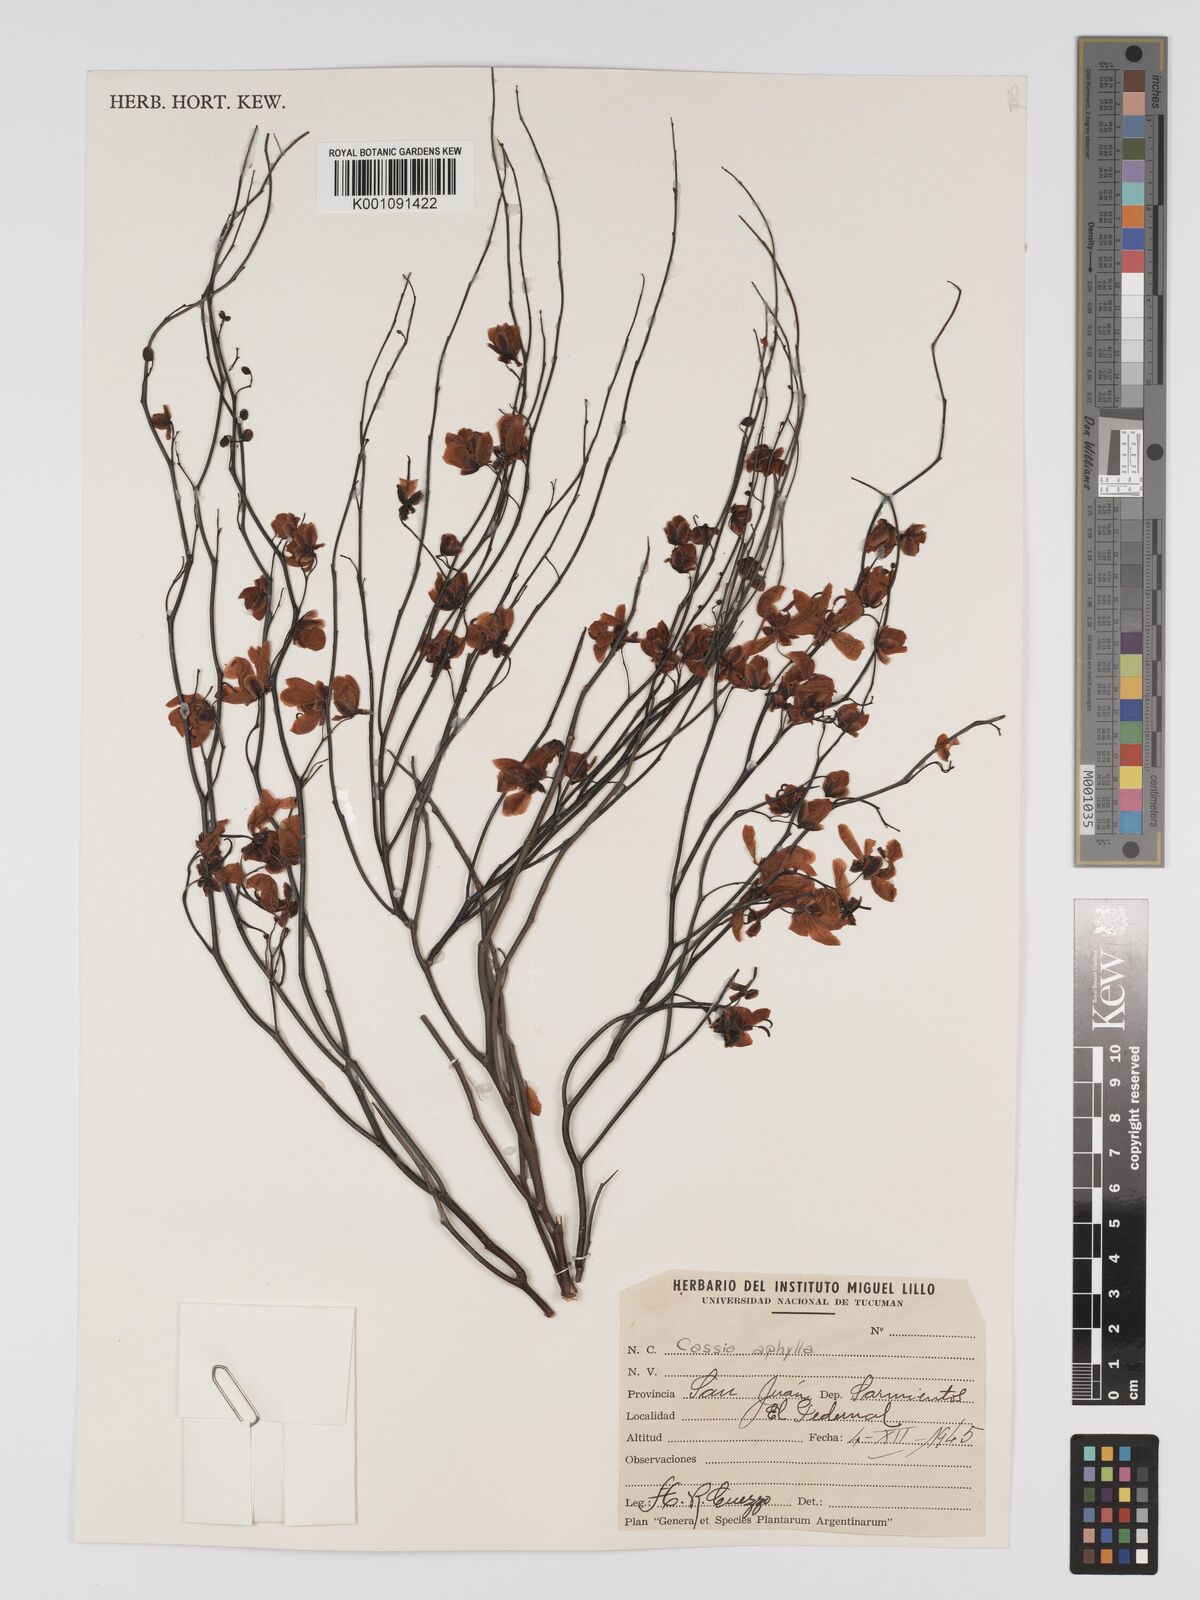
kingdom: Plantae
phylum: Tracheophyta
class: Magnoliopsida
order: Fabales
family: Fabaceae
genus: Senna
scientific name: Senna aphylla
